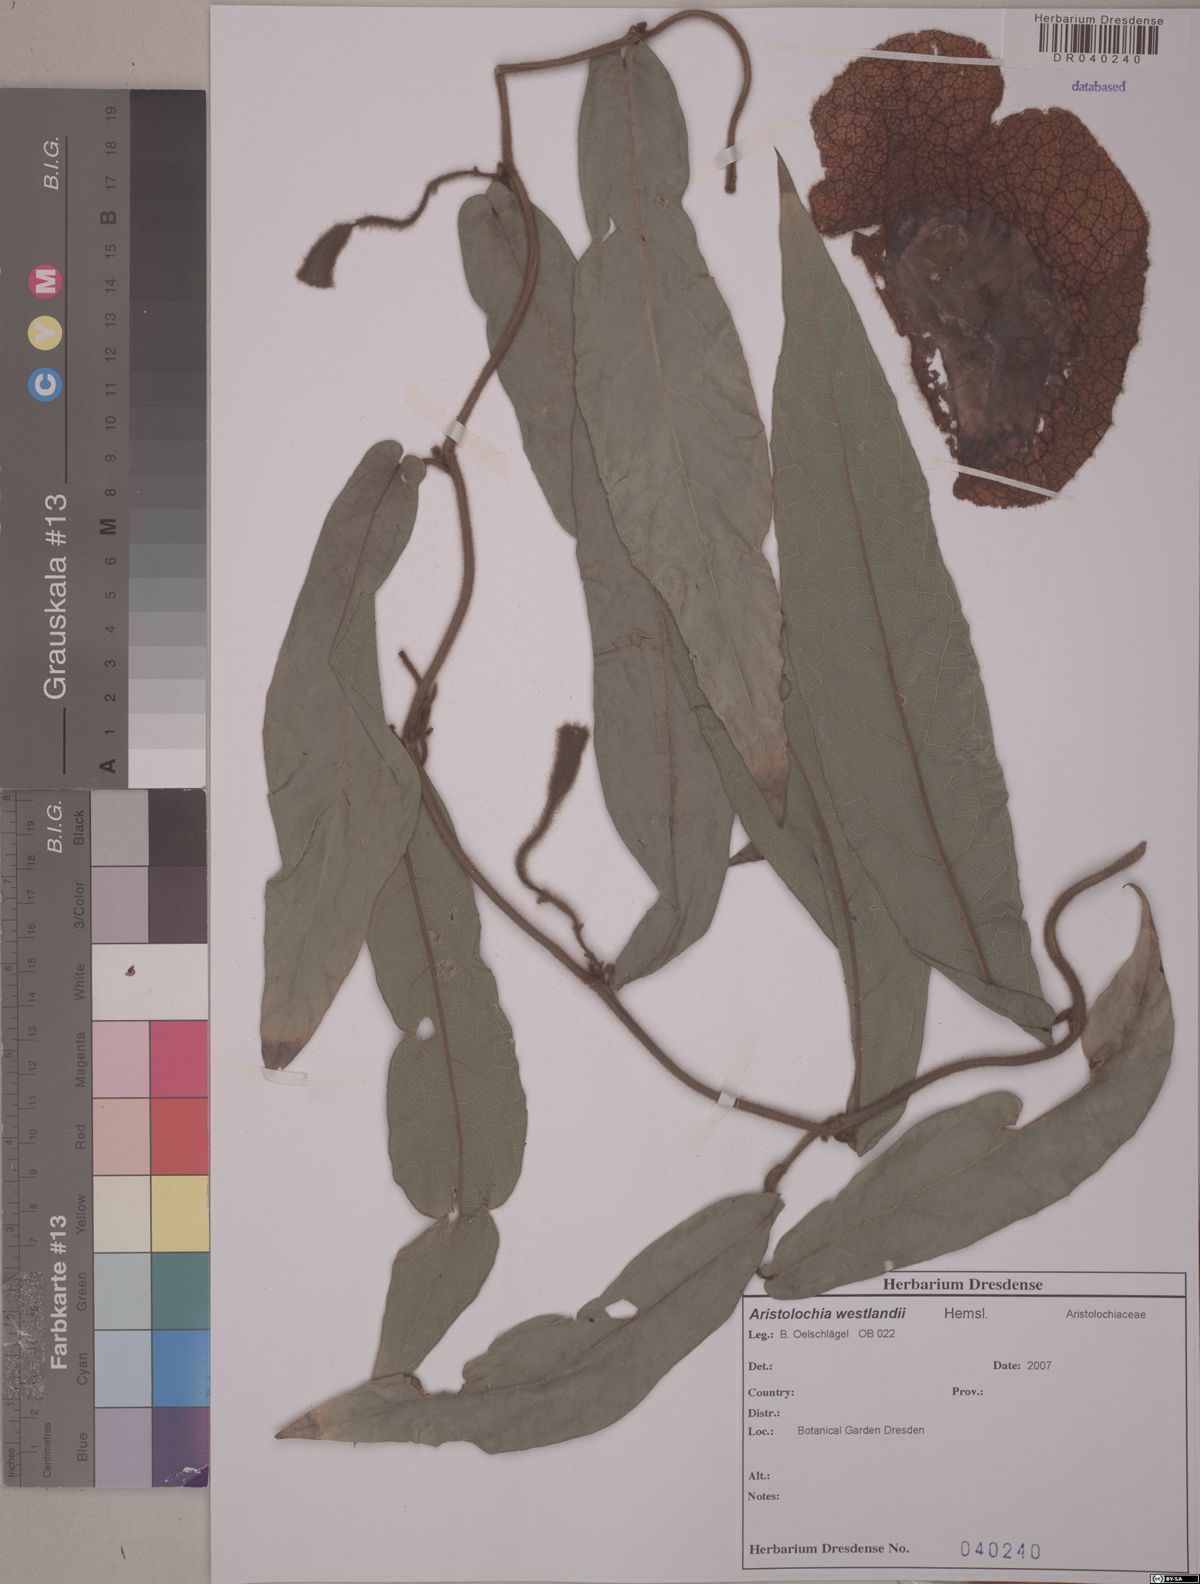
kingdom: Plantae
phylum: Tracheophyta
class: Magnoliopsida
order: Piperales
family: Aristolochiaceae
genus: Isotrema
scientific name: Isotrema westlandii
